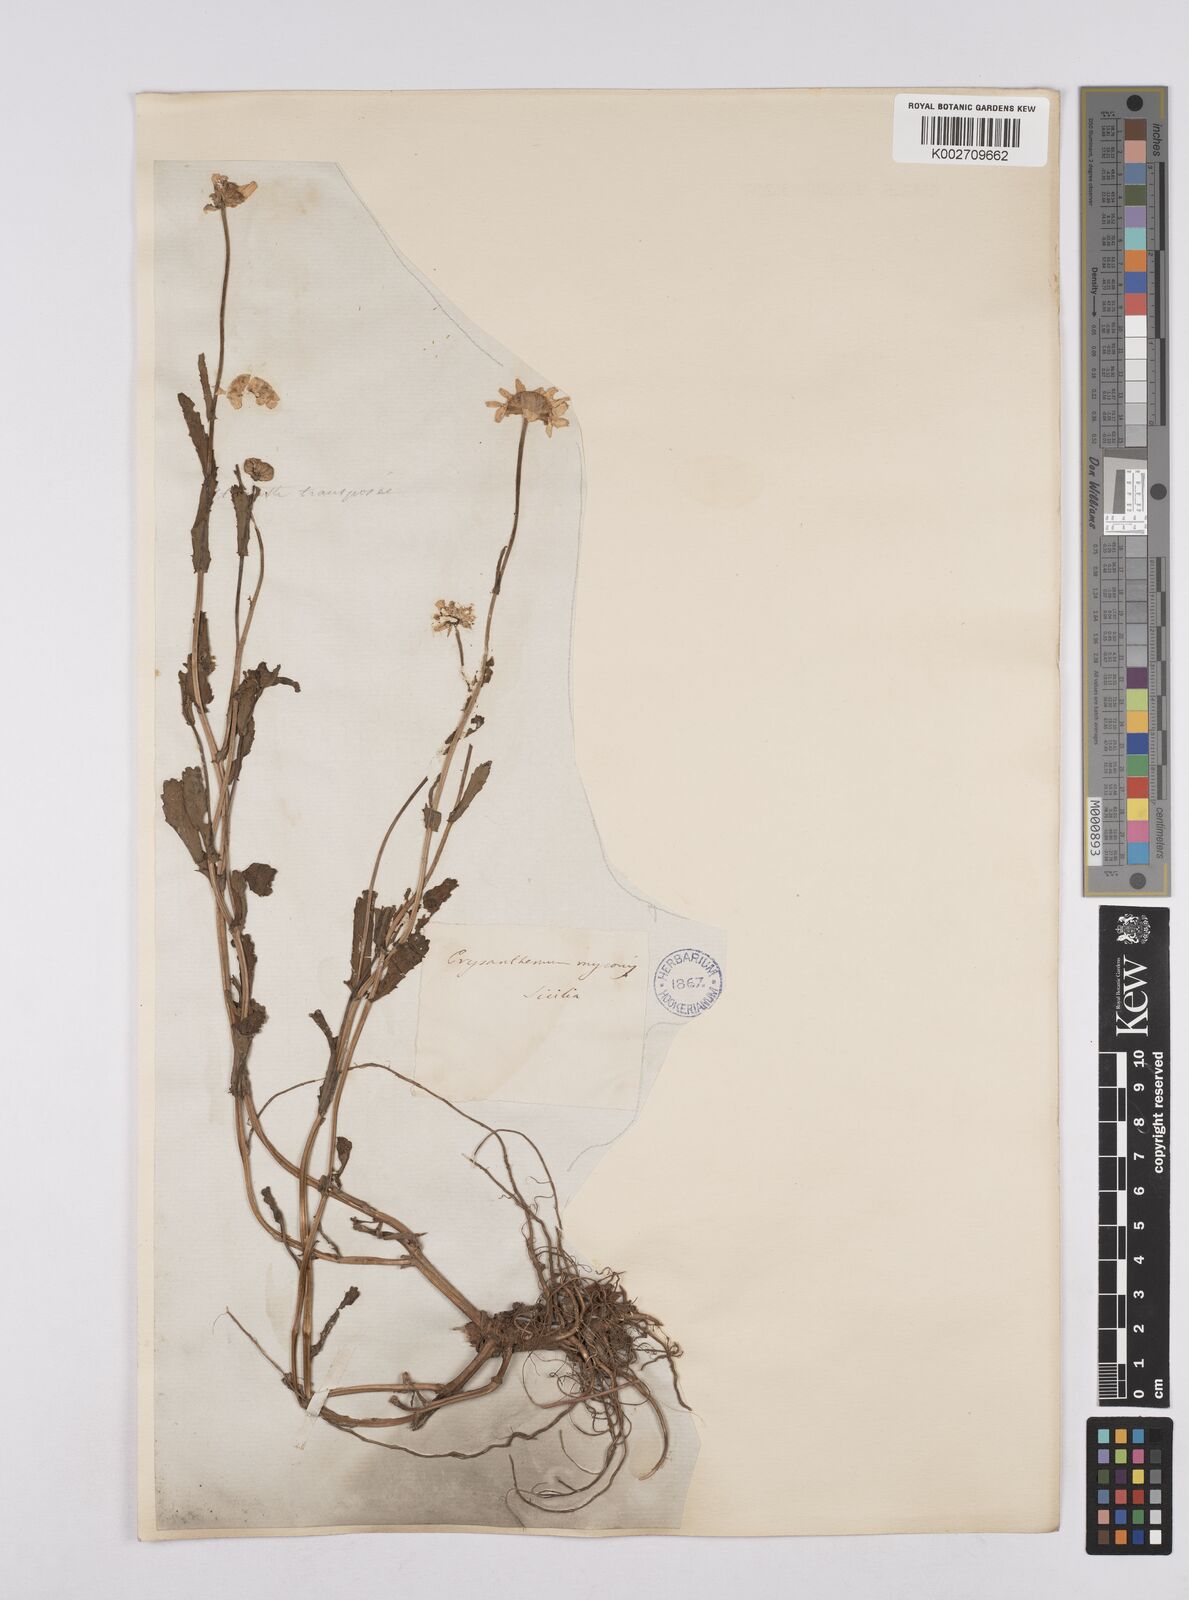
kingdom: Plantae
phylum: Tracheophyta
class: Magnoliopsida
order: Asterales
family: Asteraceae
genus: Coleostephus
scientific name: Coleostephus myconis
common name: Mediterranean marigold
